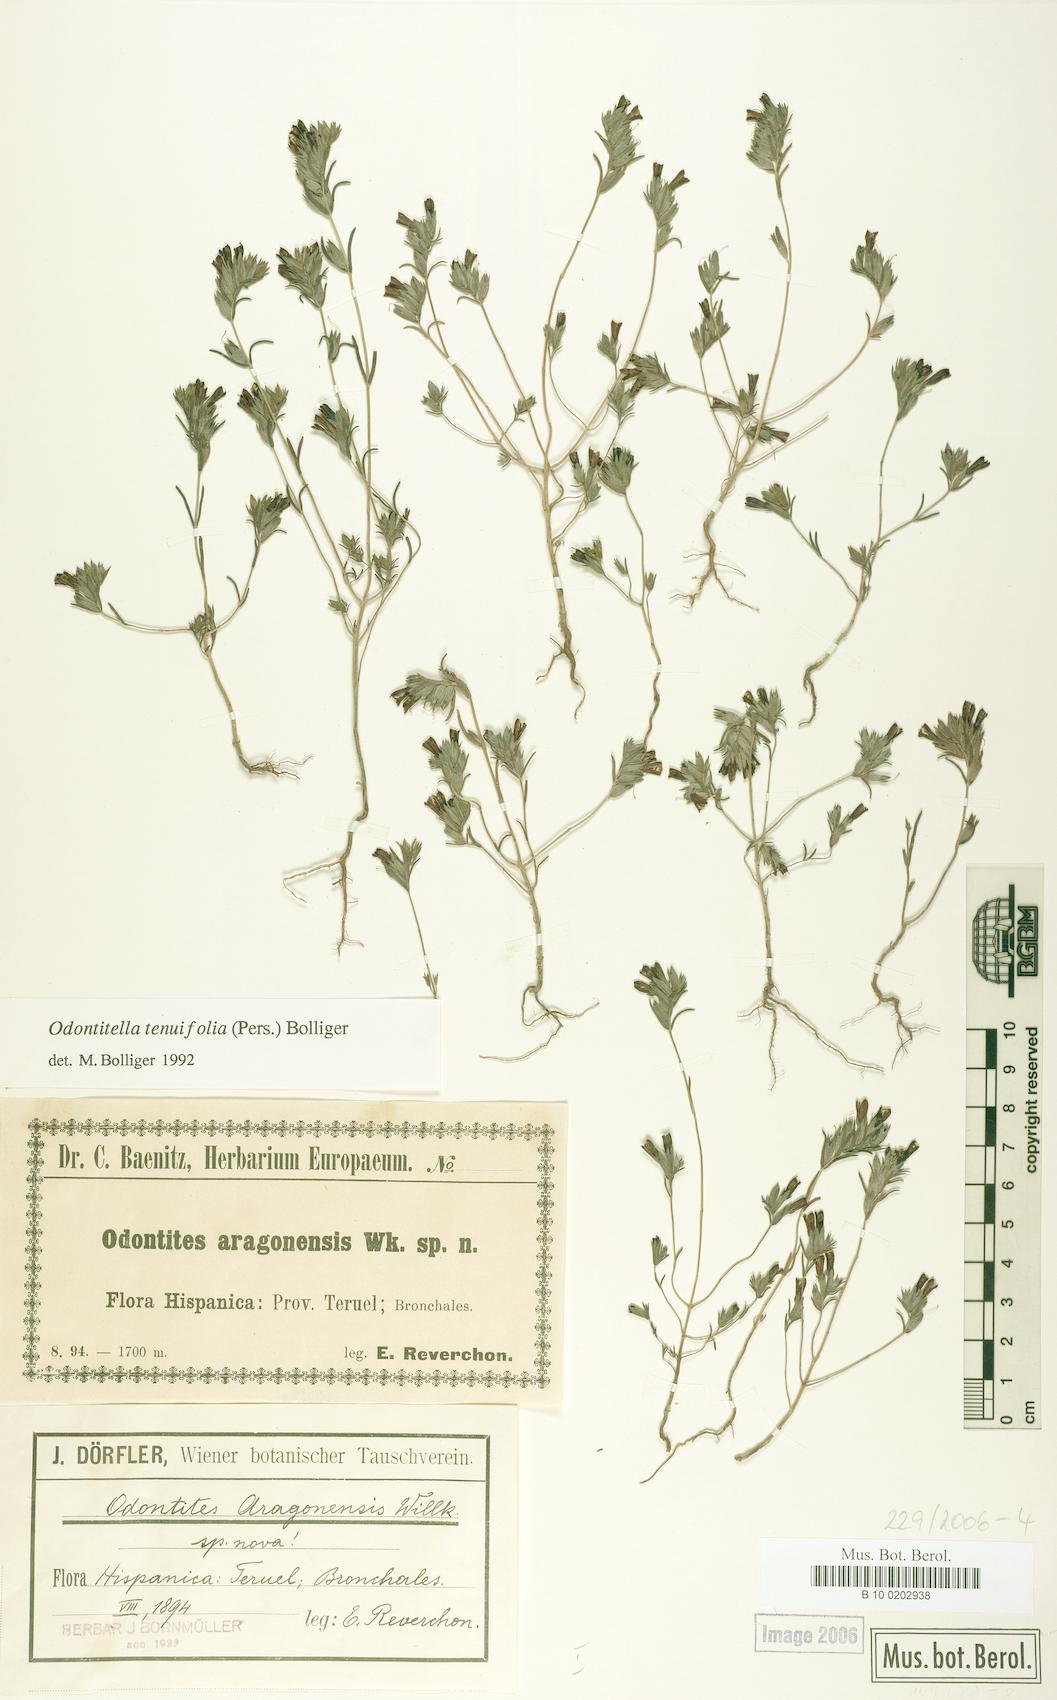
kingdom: Plantae
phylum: Tracheophyta
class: Magnoliopsida
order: Lamiales
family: Orobanchaceae
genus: Odontitella
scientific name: Odontitella virgata
